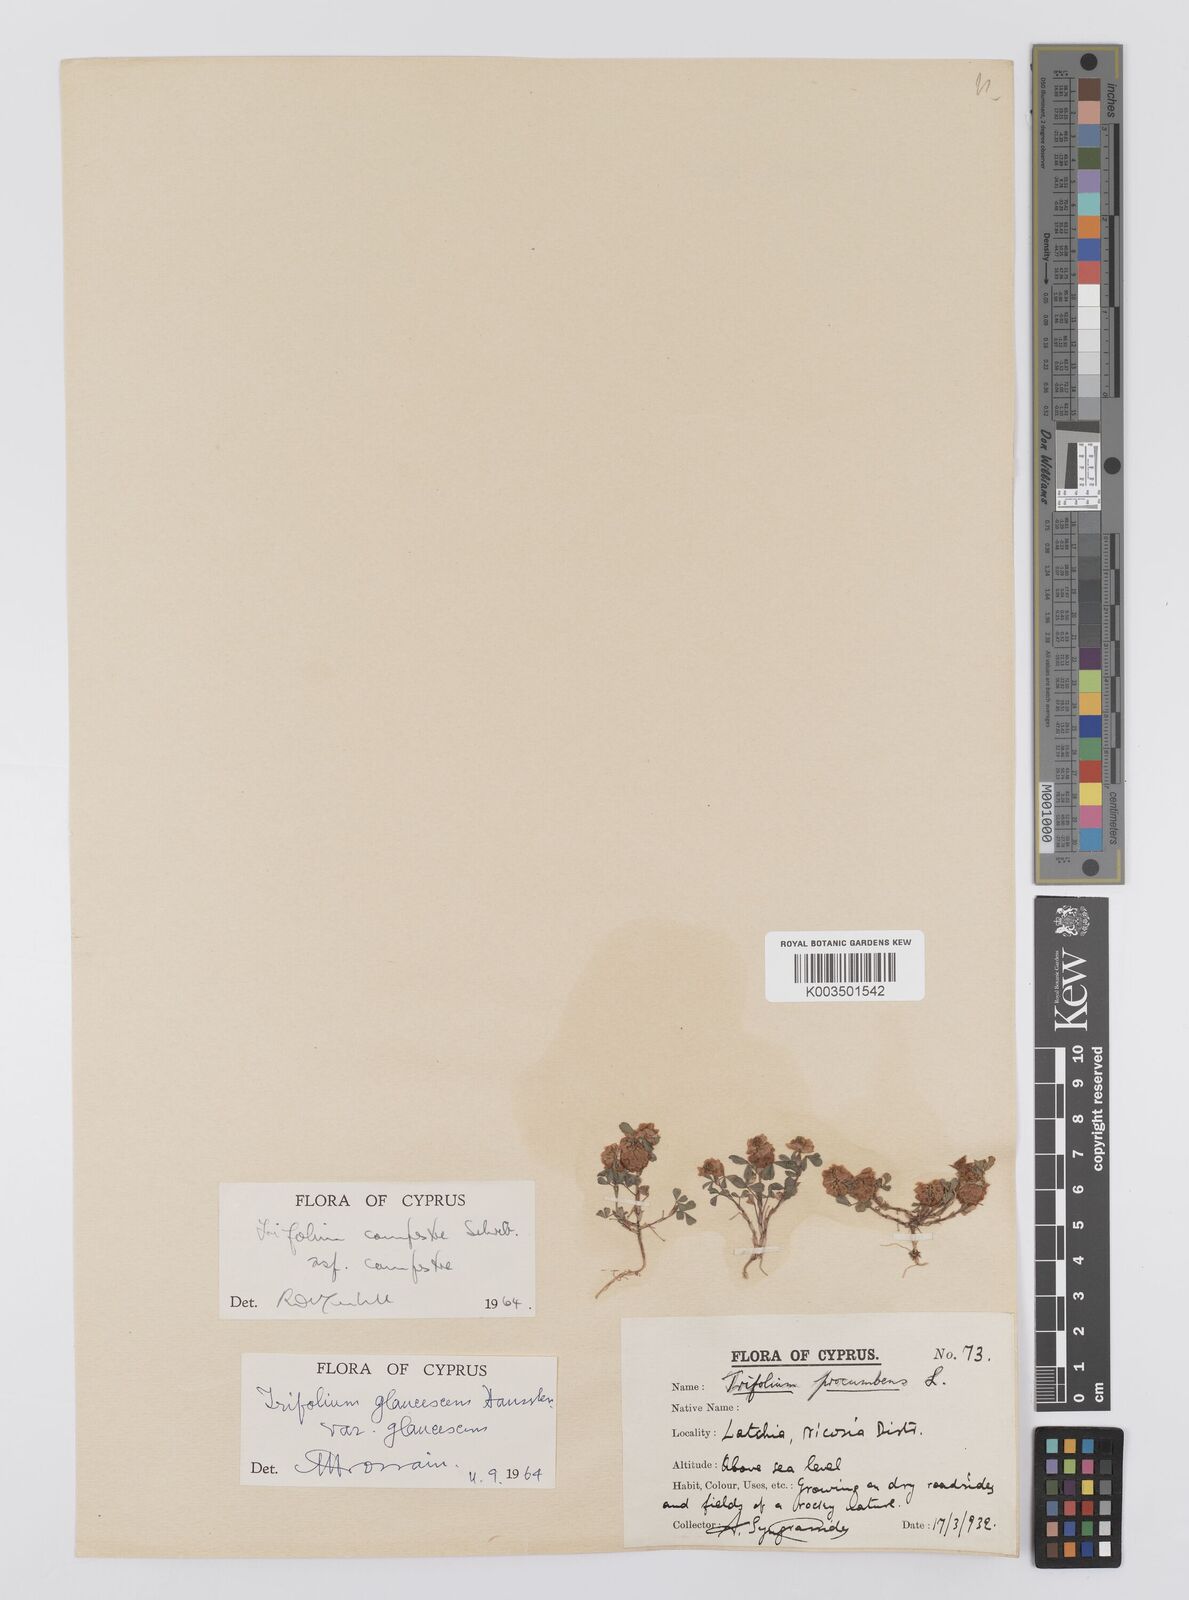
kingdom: Plantae
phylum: Tracheophyta
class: Magnoliopsida
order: Fabales
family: Fabaceae
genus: Trifolium
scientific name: Trifolium campestre
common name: Field clover
